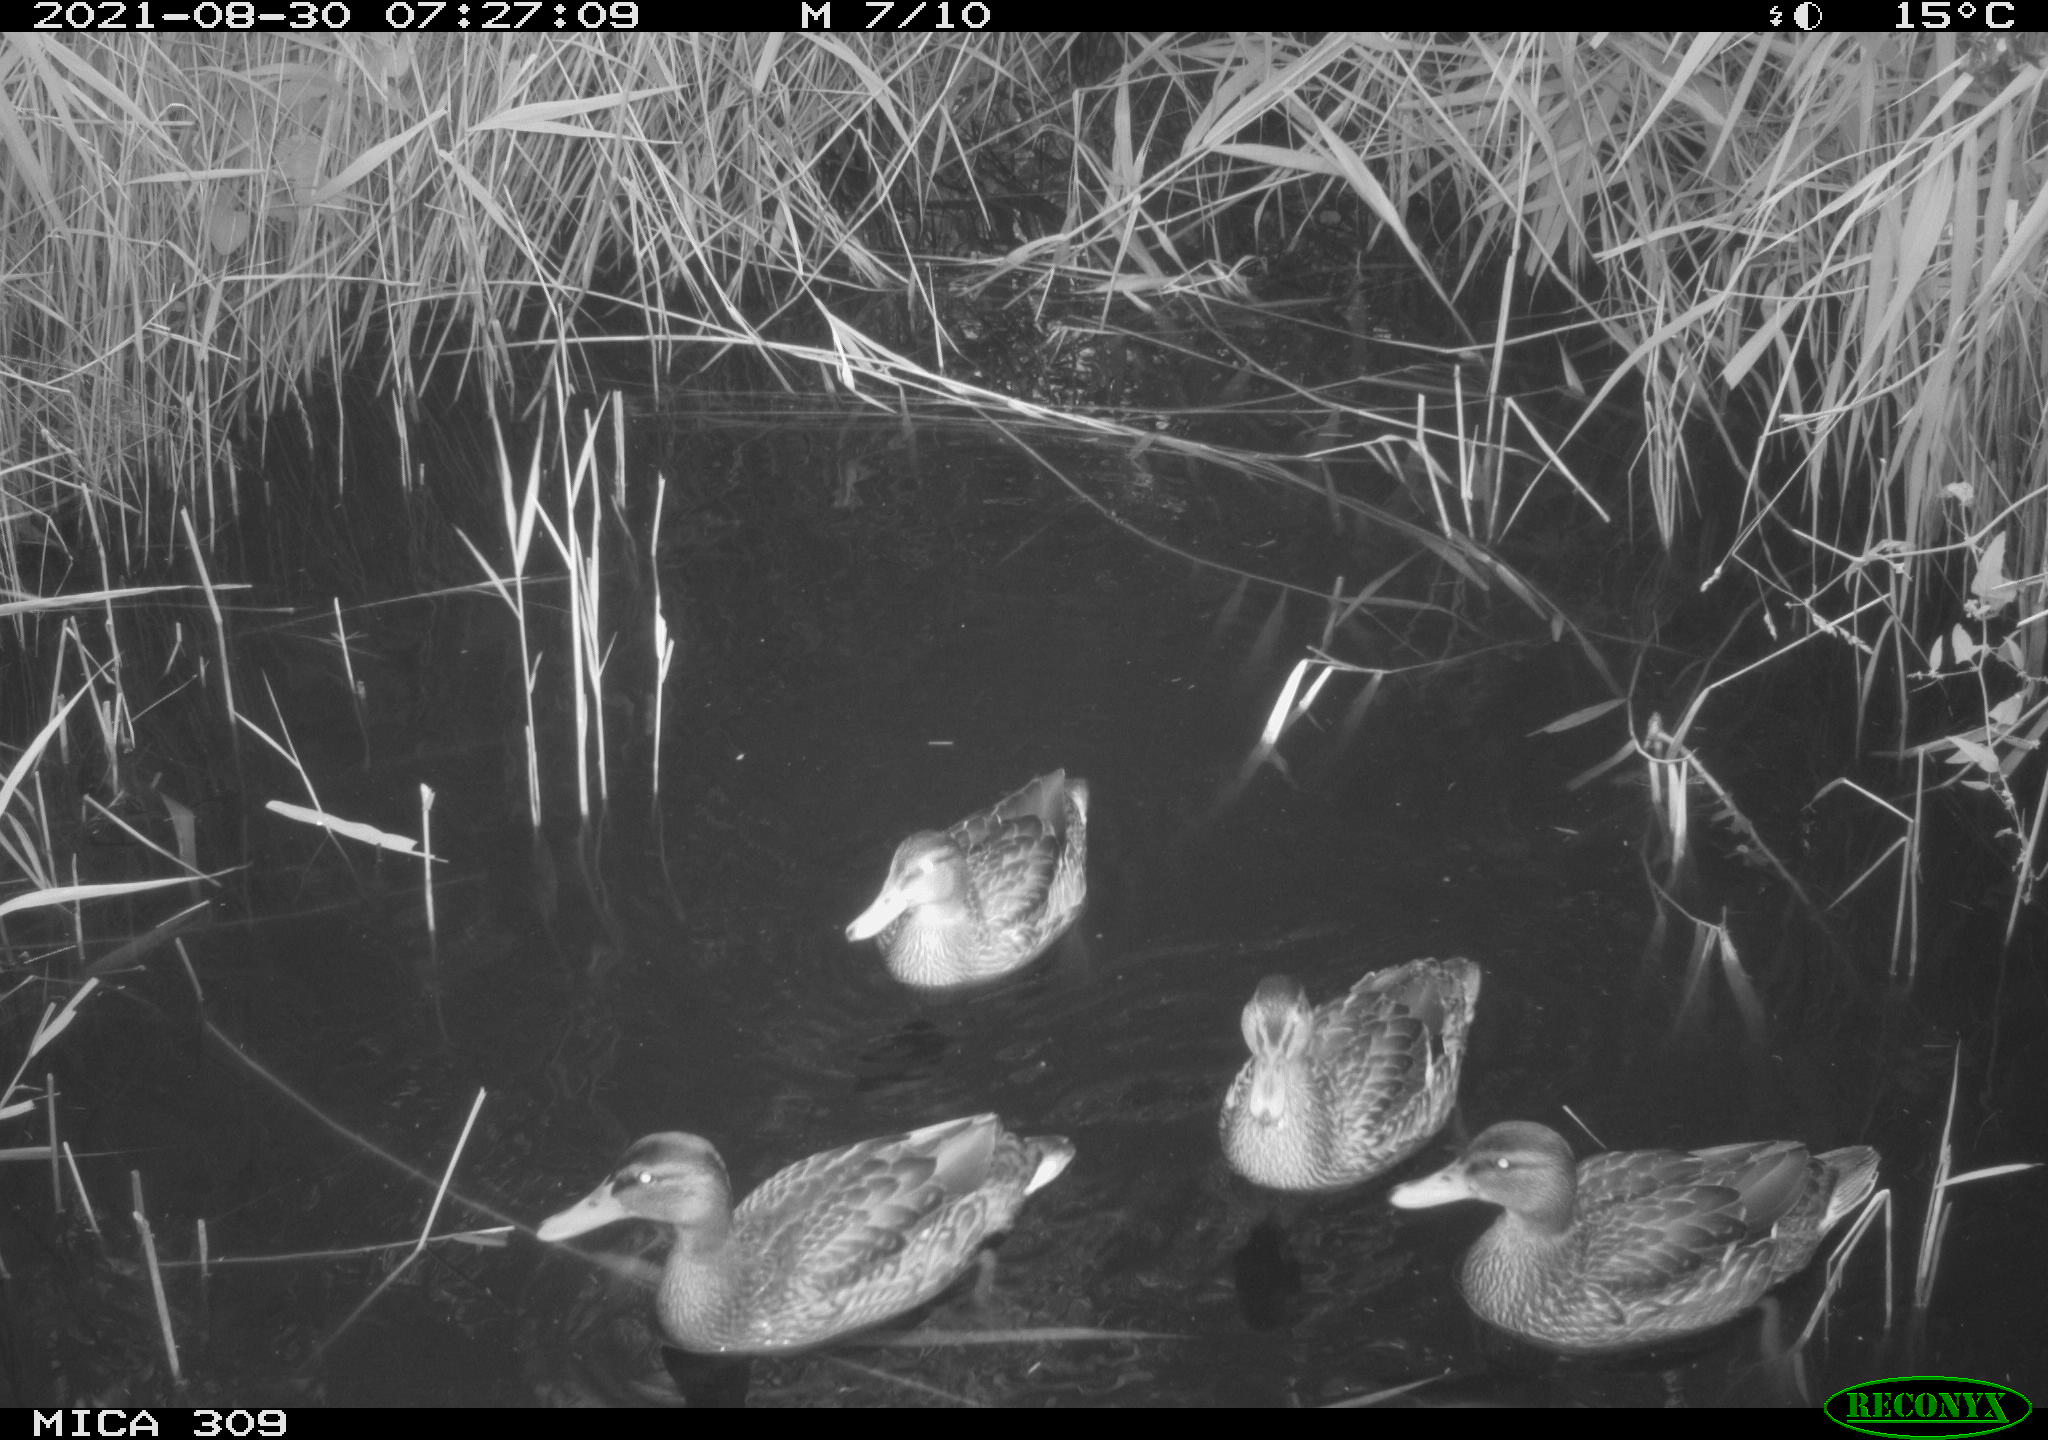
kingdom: Animalia
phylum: Chordata
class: Aves
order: Anseriformes
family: Anatidae
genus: Anas
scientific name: Anas platyrhynchos
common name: Mallard
